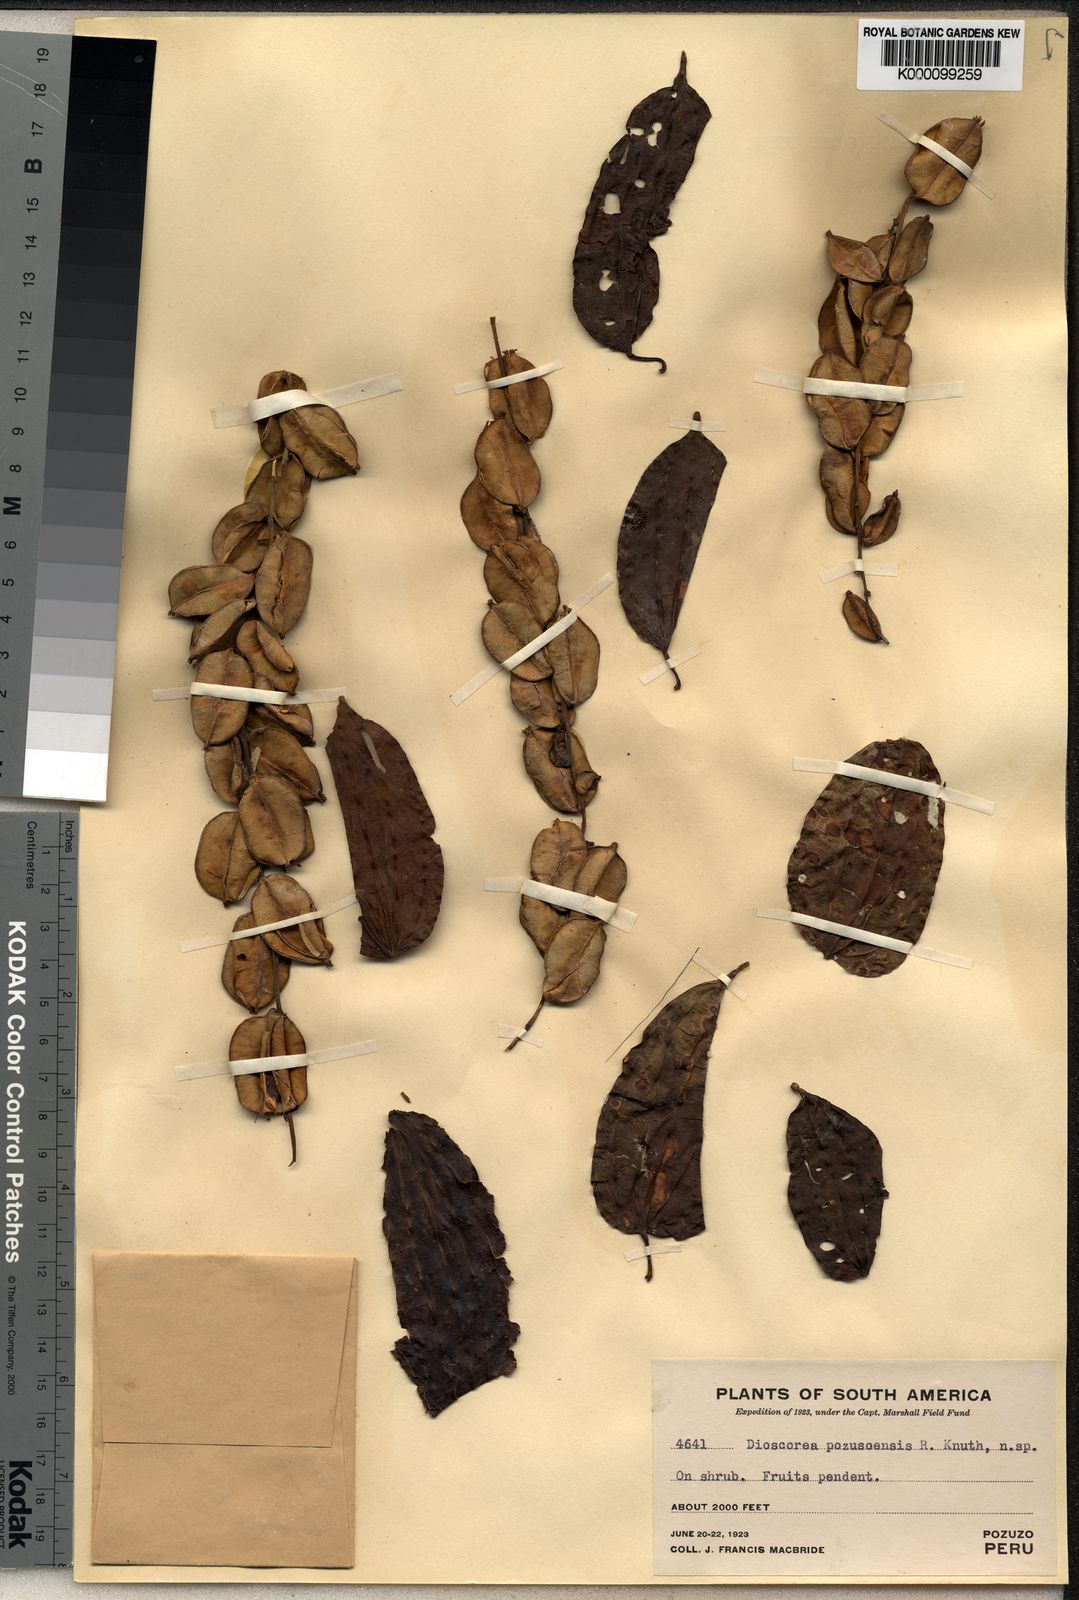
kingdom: Plantae
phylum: Tracheophyta
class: Liliopsida
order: Dioscoreales
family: Dioscoreaceae
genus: Dioscorea
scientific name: Dioscorea acanthogene
